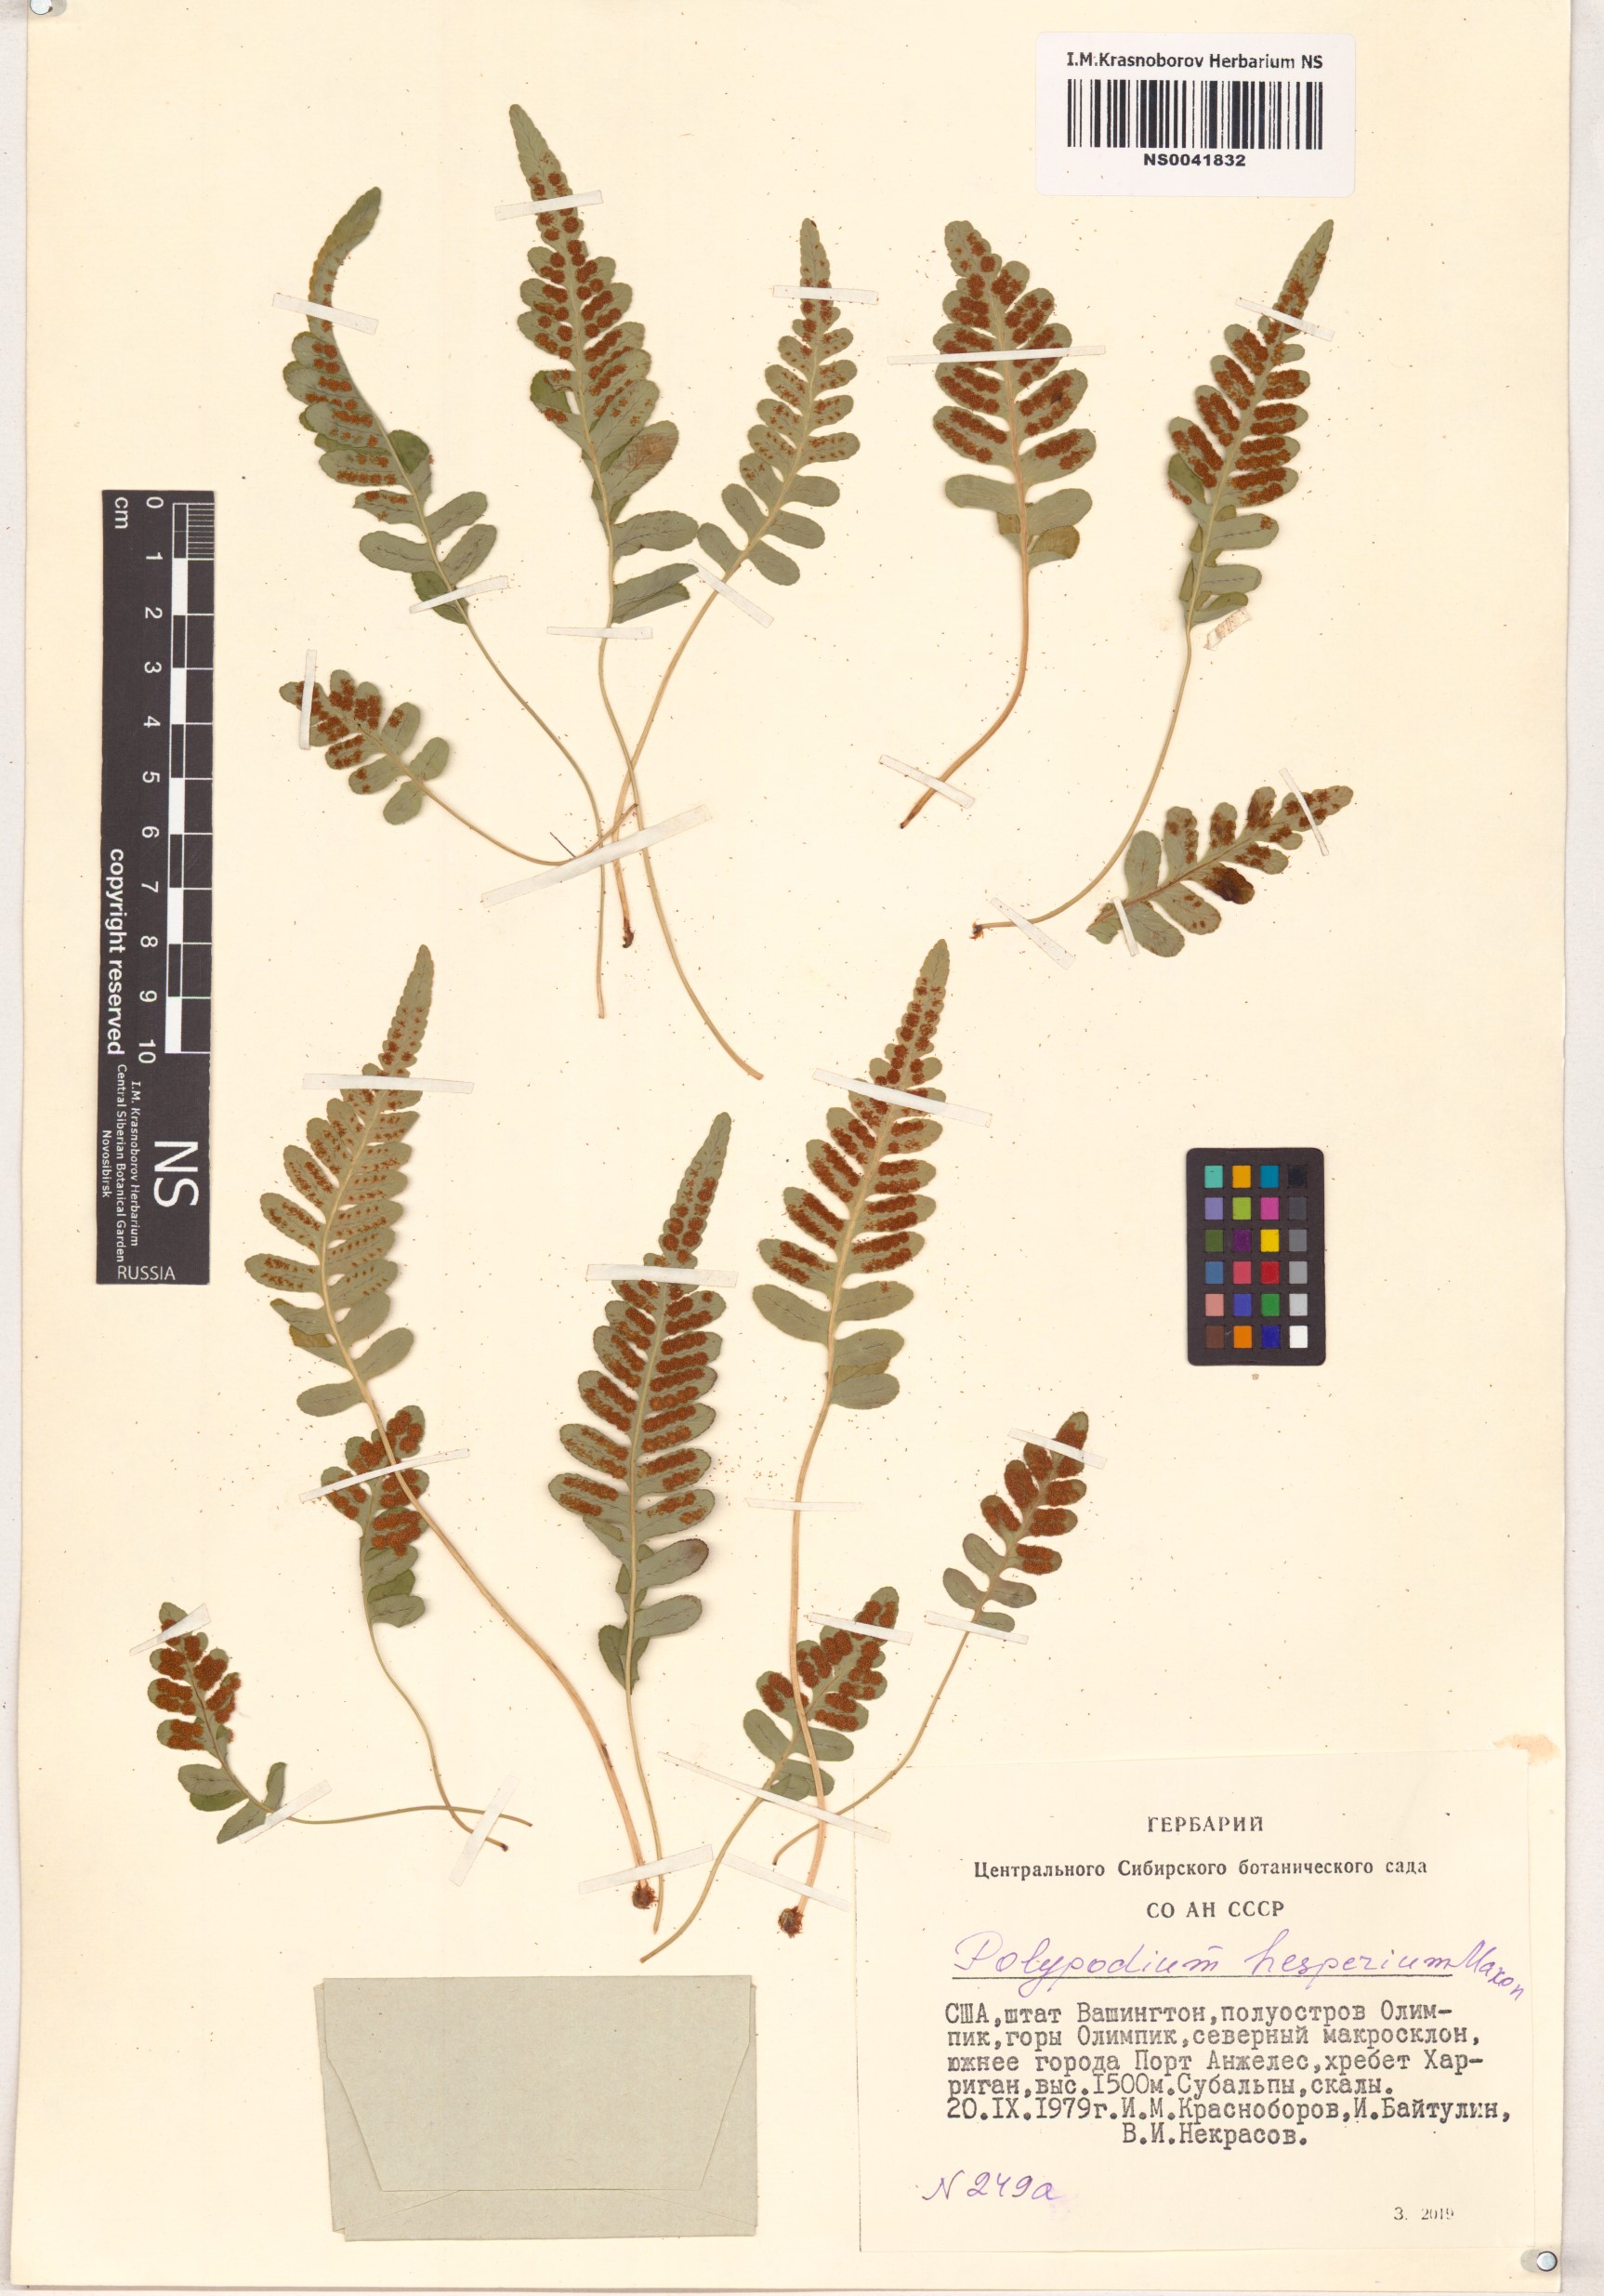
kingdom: Plantae
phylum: Tracheophyta
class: Polypodiopsida
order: Polypodiales
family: Polypodiaceae
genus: Polypodium
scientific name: Polypodium hesperium
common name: Western polypody
